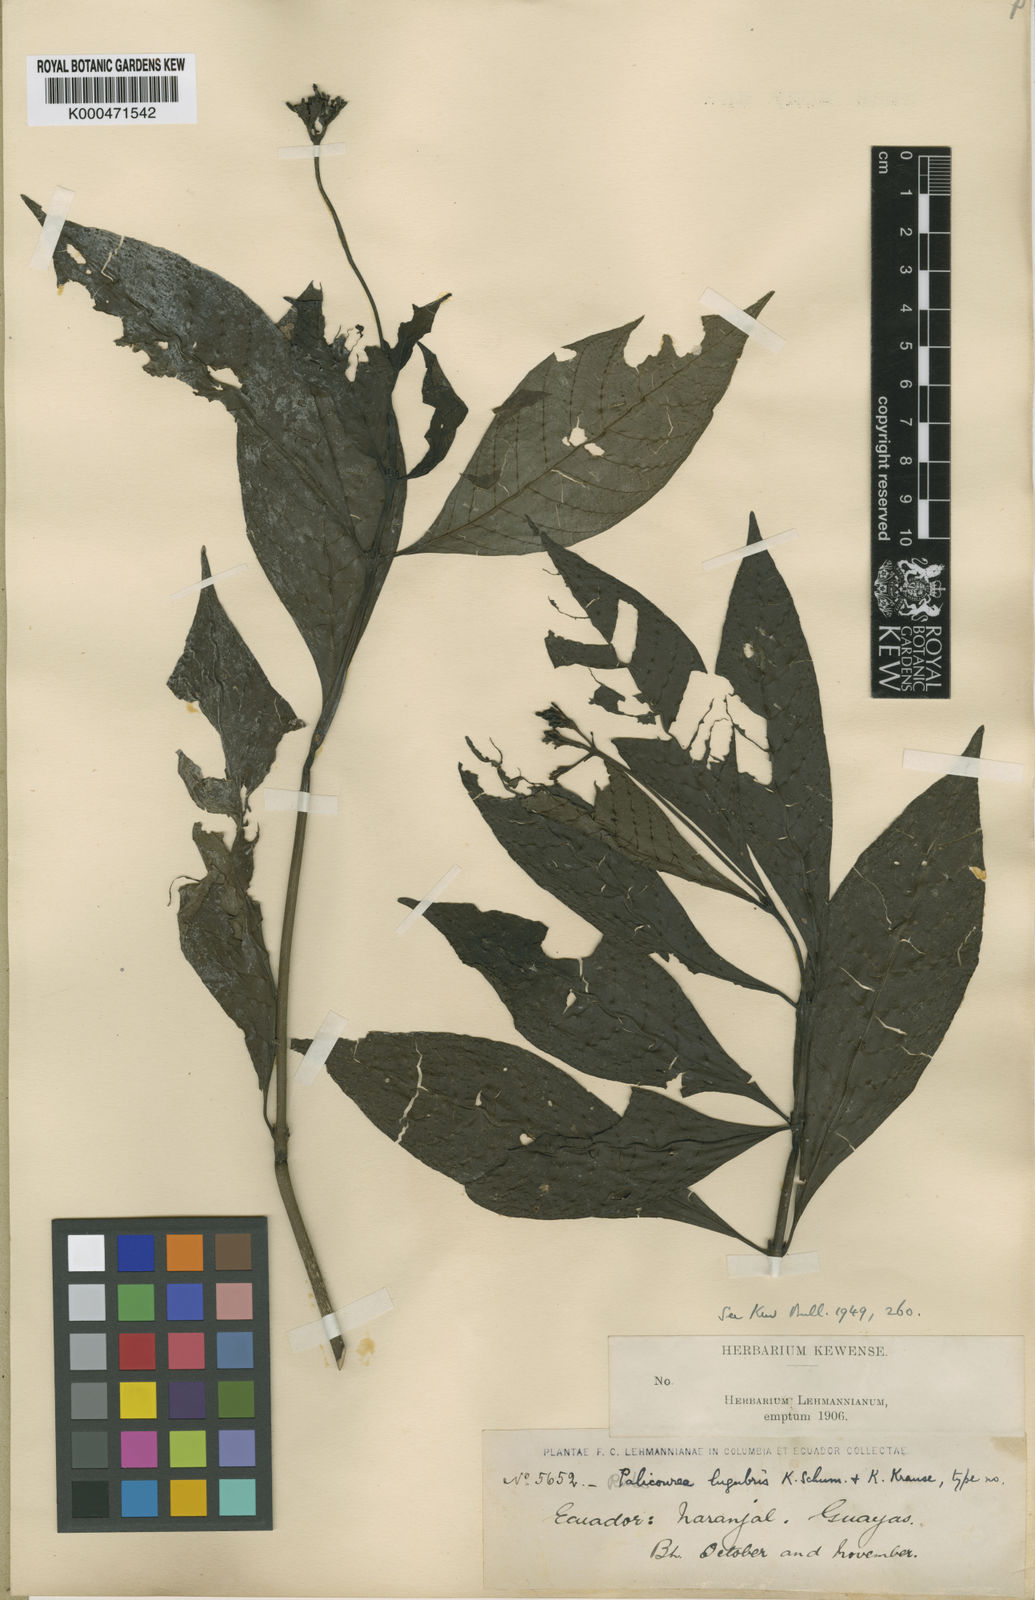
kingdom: Plantae
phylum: Tracheophyta
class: Magnoliopsida
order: Gentianales
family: Rubiaceae
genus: Palicourea
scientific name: Palicourea conferta
